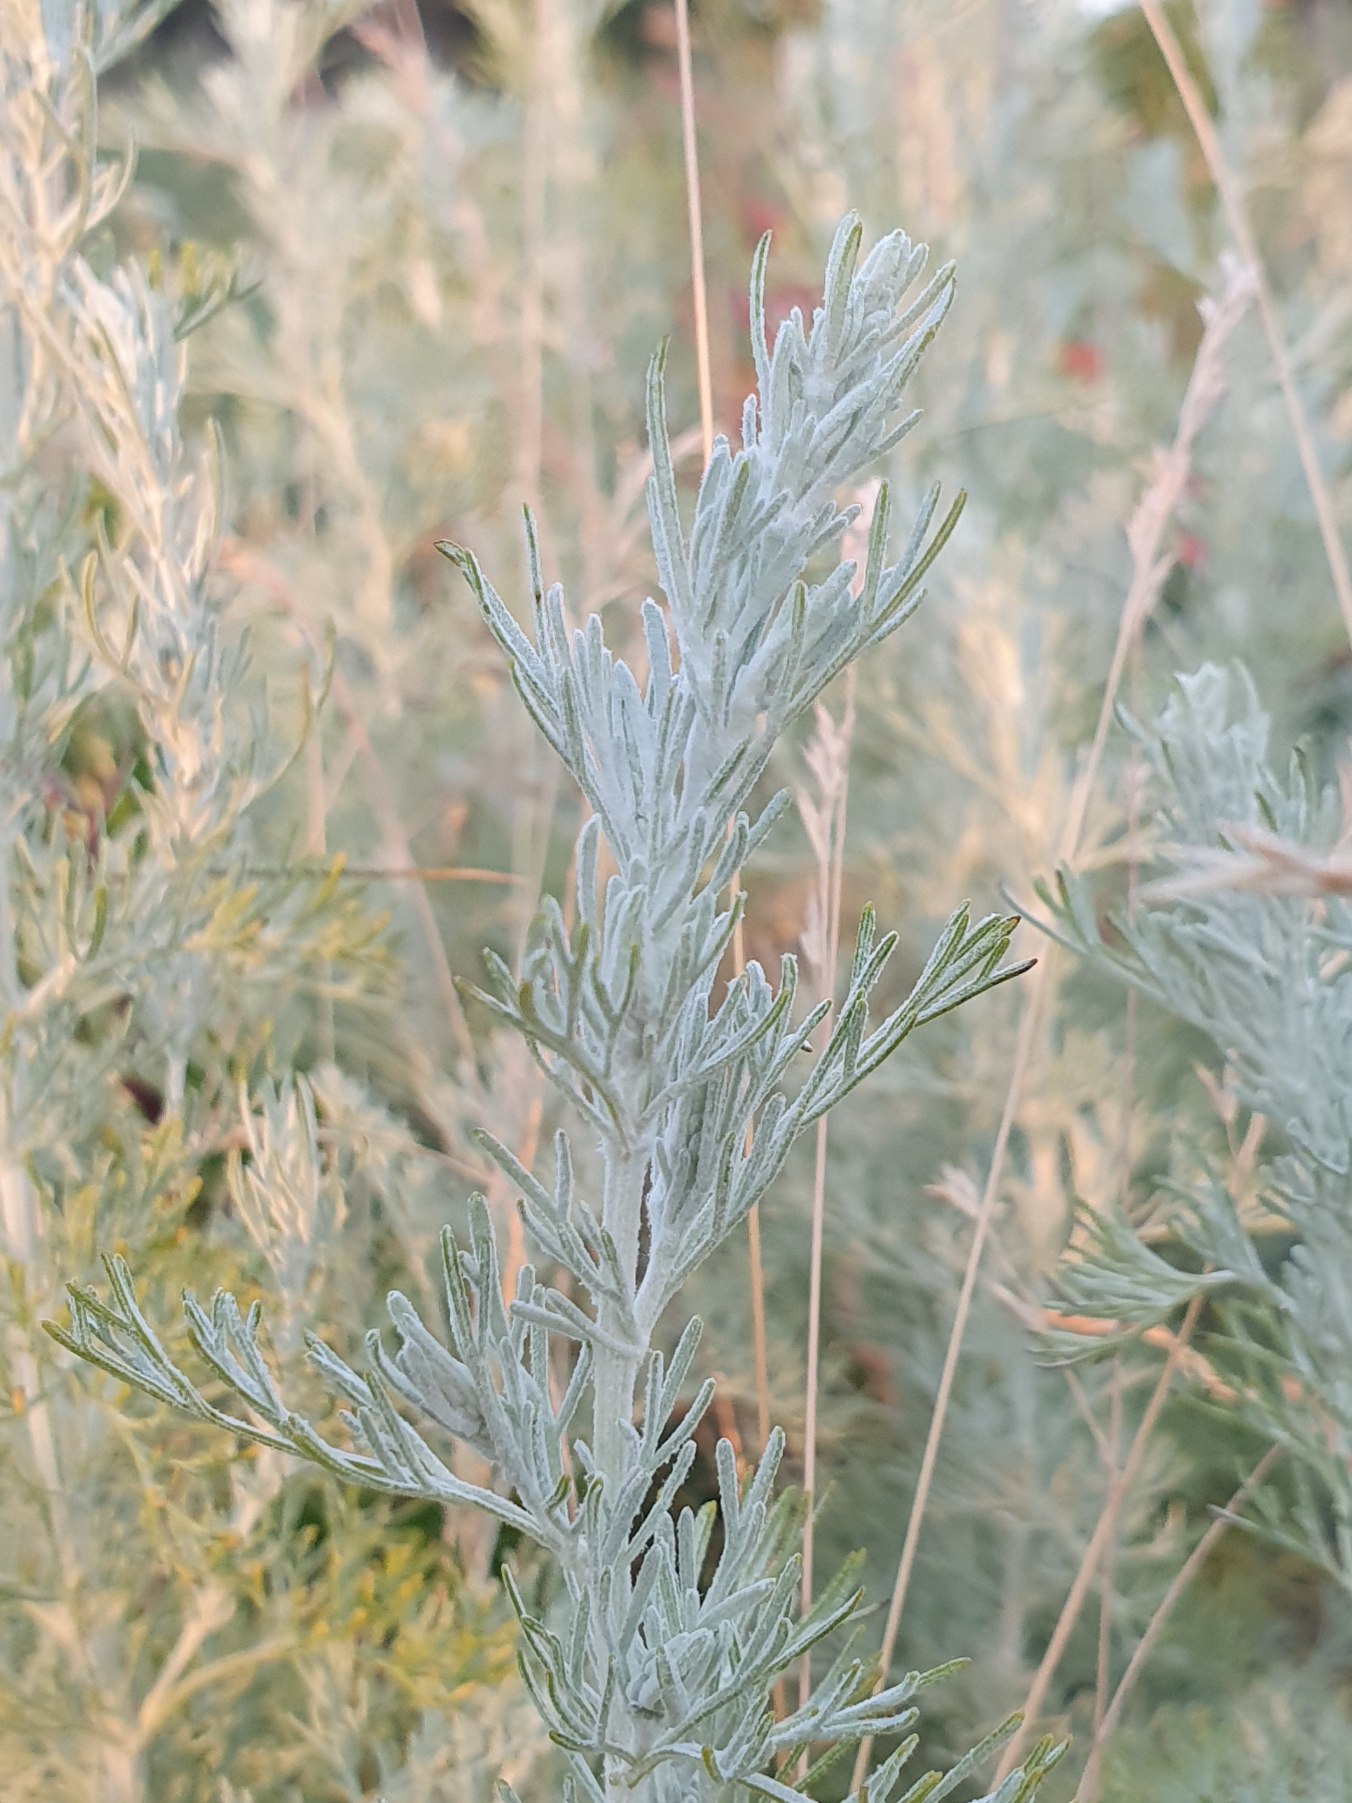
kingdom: Plantae
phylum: Tracheophyta
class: Magnoliopsida
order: Asterales
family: Asteraceae
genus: Artemisia
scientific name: Artemisia maritima
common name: Strandmalurt
